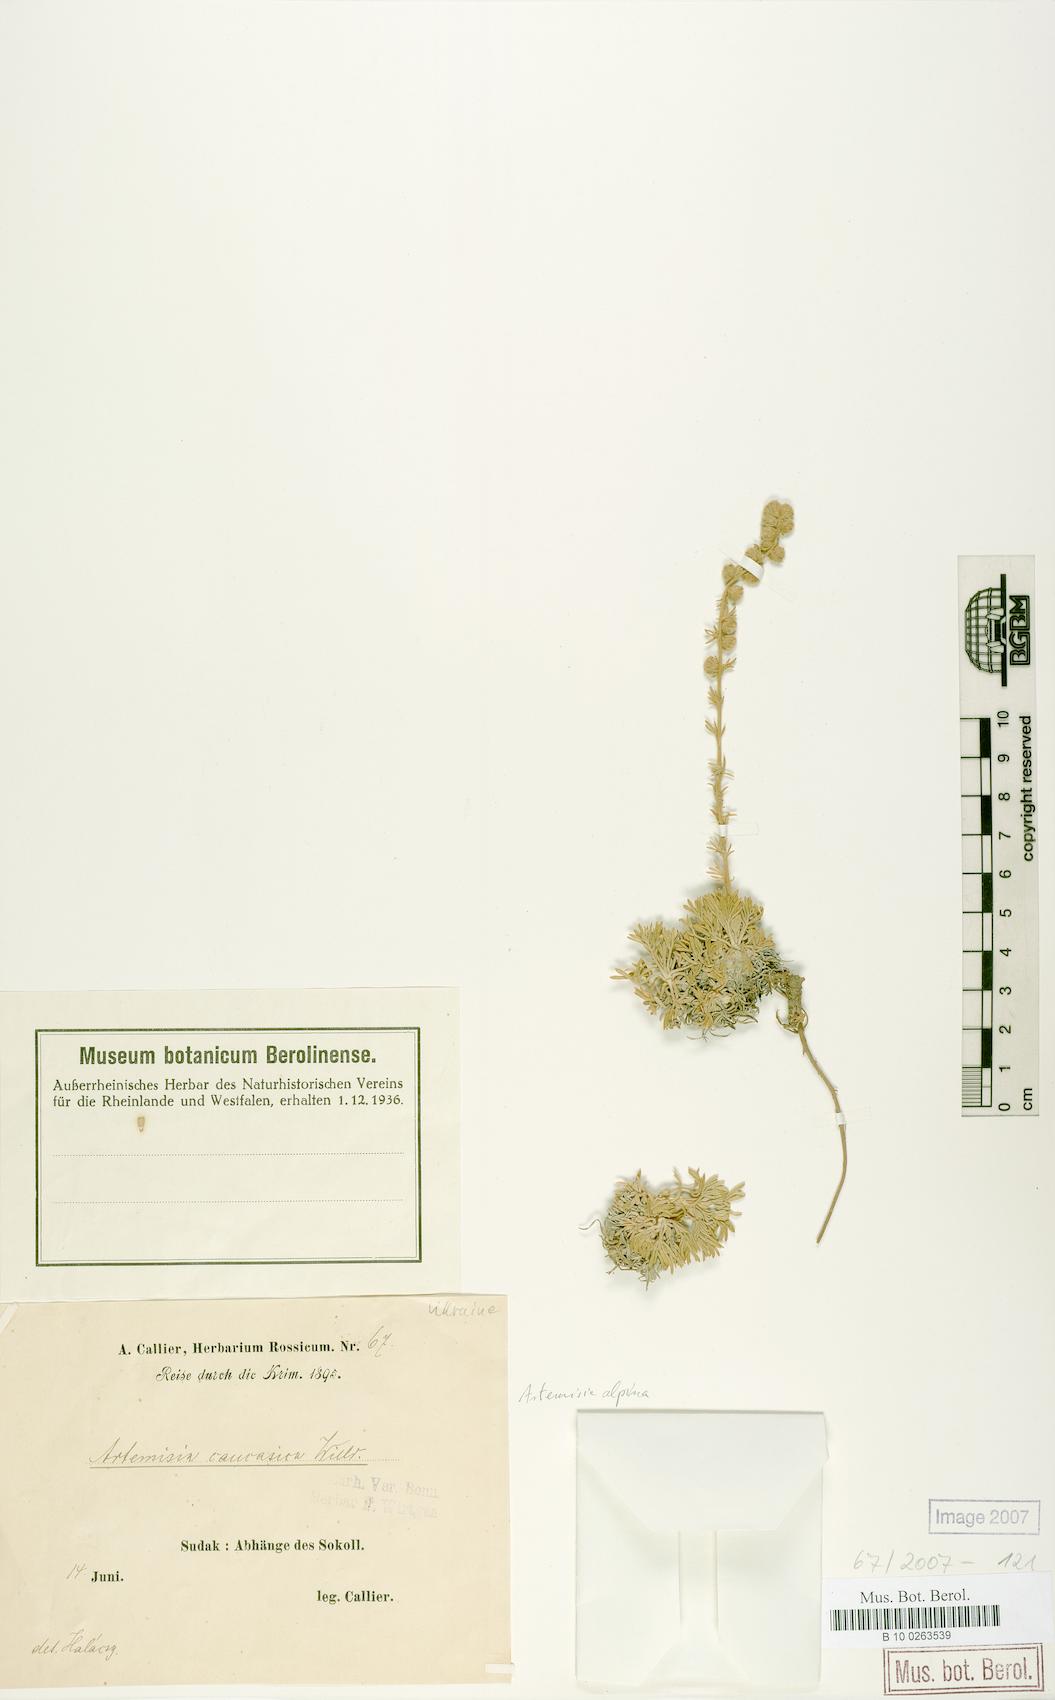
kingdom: Plantae
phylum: Tracheophyta
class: Magnoliopsida
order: Asterales
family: Asteraceae
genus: Artemisia
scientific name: Artemisia alpina
